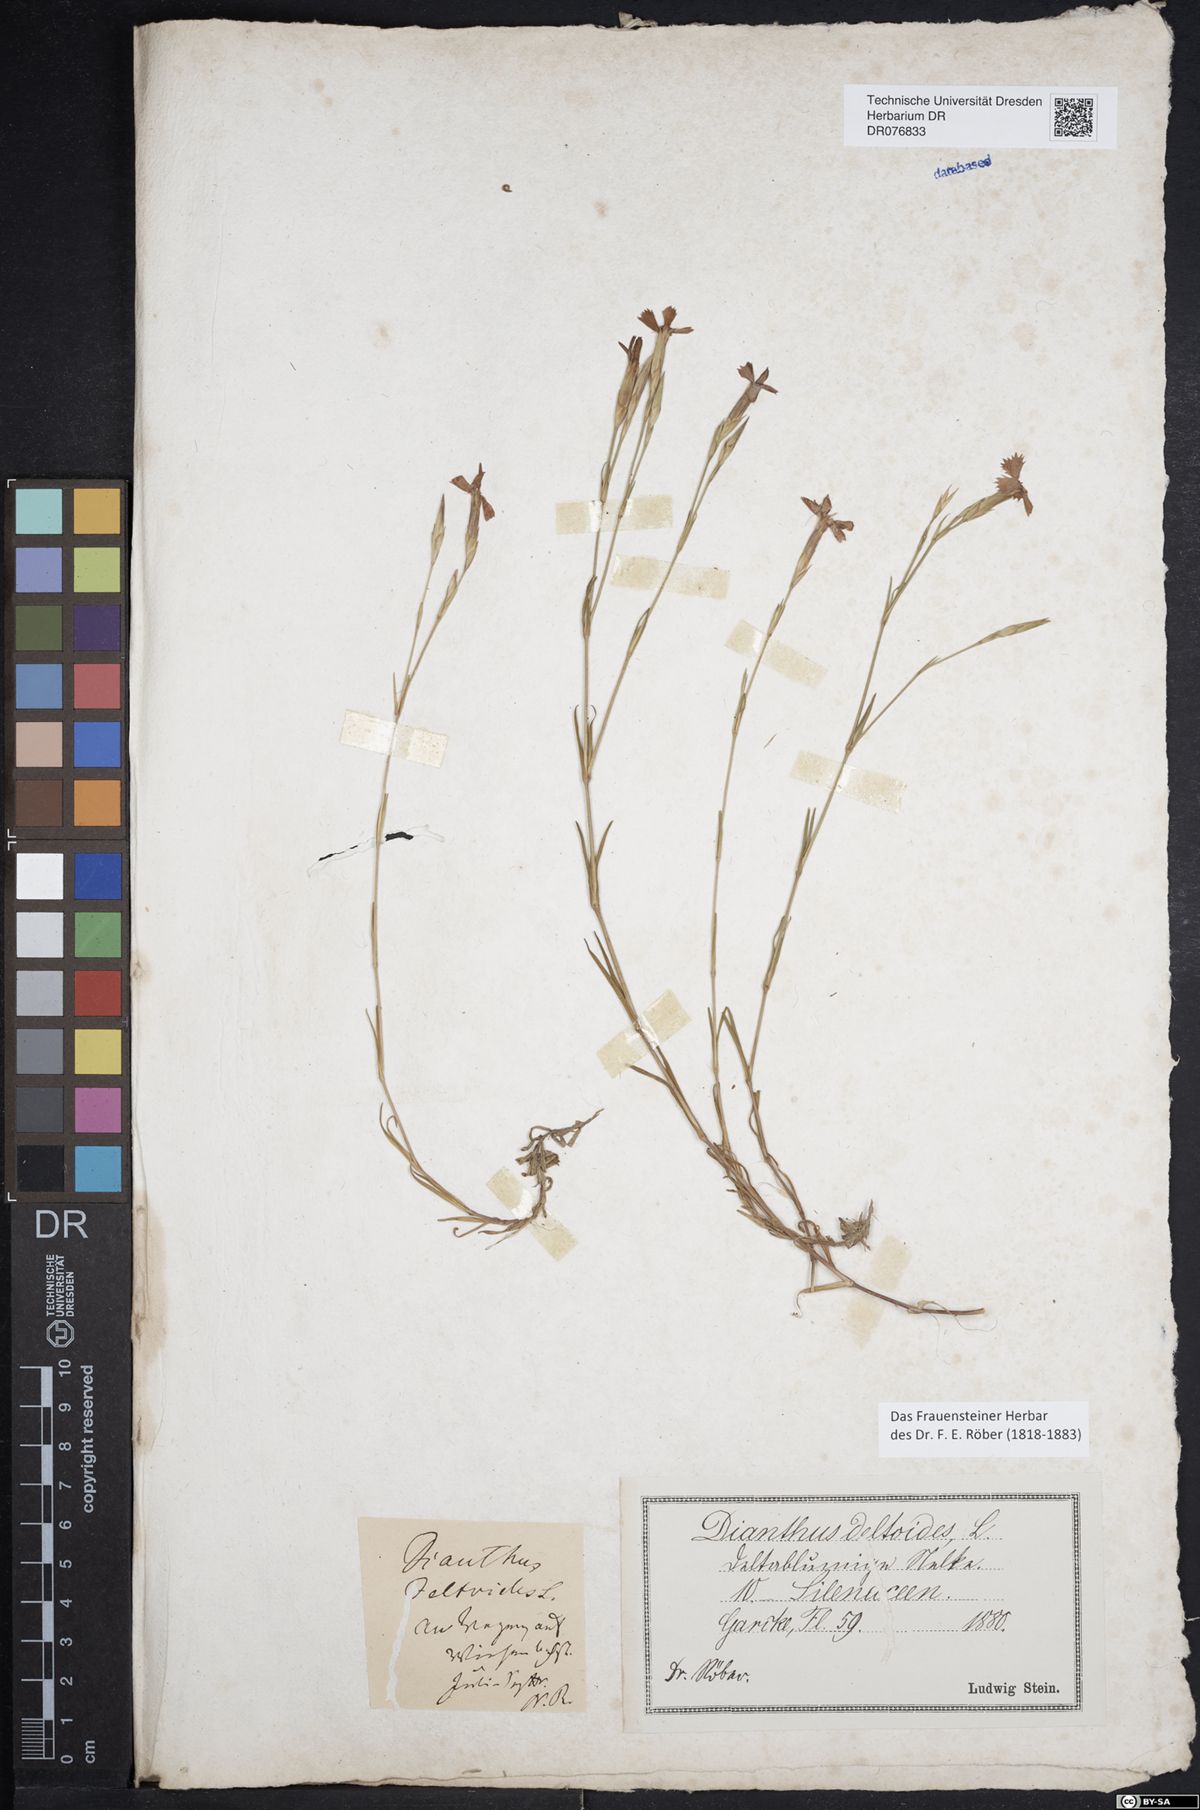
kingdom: Plantae
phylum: Tracheophyta
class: Magnoliopsida
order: Caryophyllales
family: Caryophyllaceae
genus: Dianthus
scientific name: Dianthus deltoides
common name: Maiden pink
